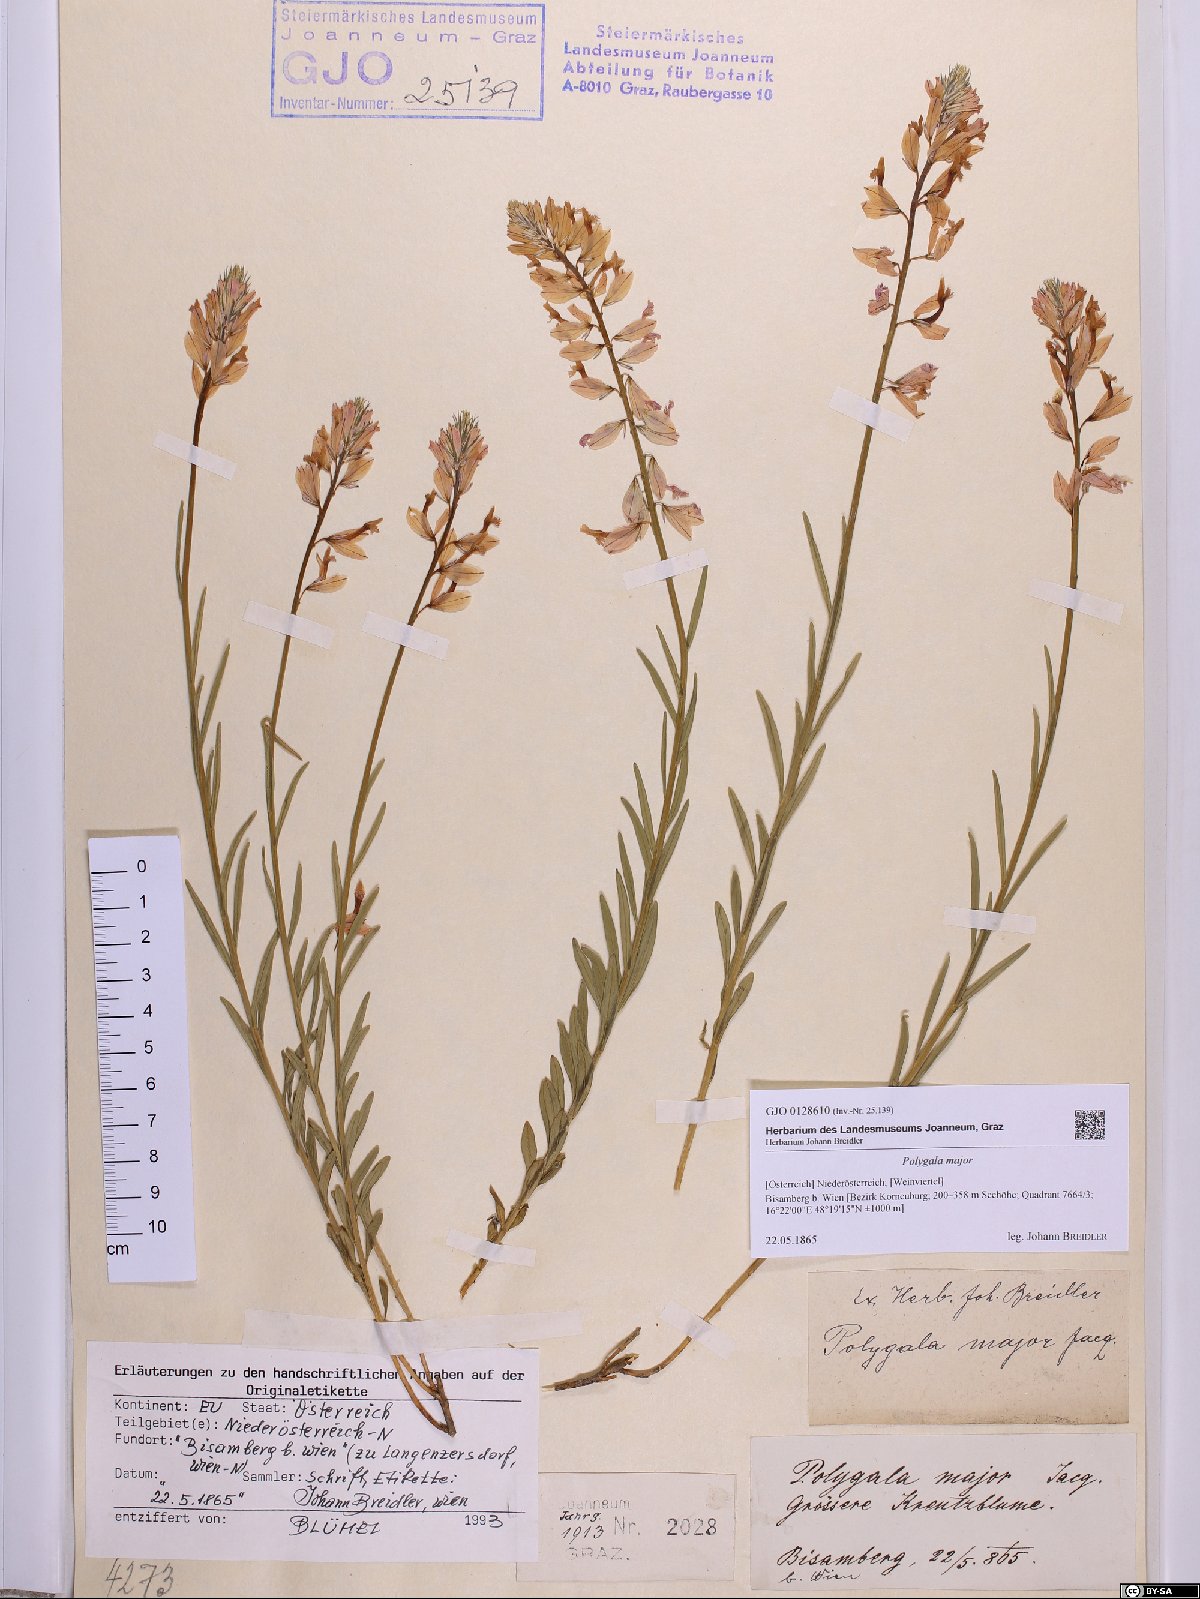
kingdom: Plantae
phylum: Tracheophyta
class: Magnoliopsida
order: Fabales
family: Polygalaceae
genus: Polygala
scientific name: Polygala major
